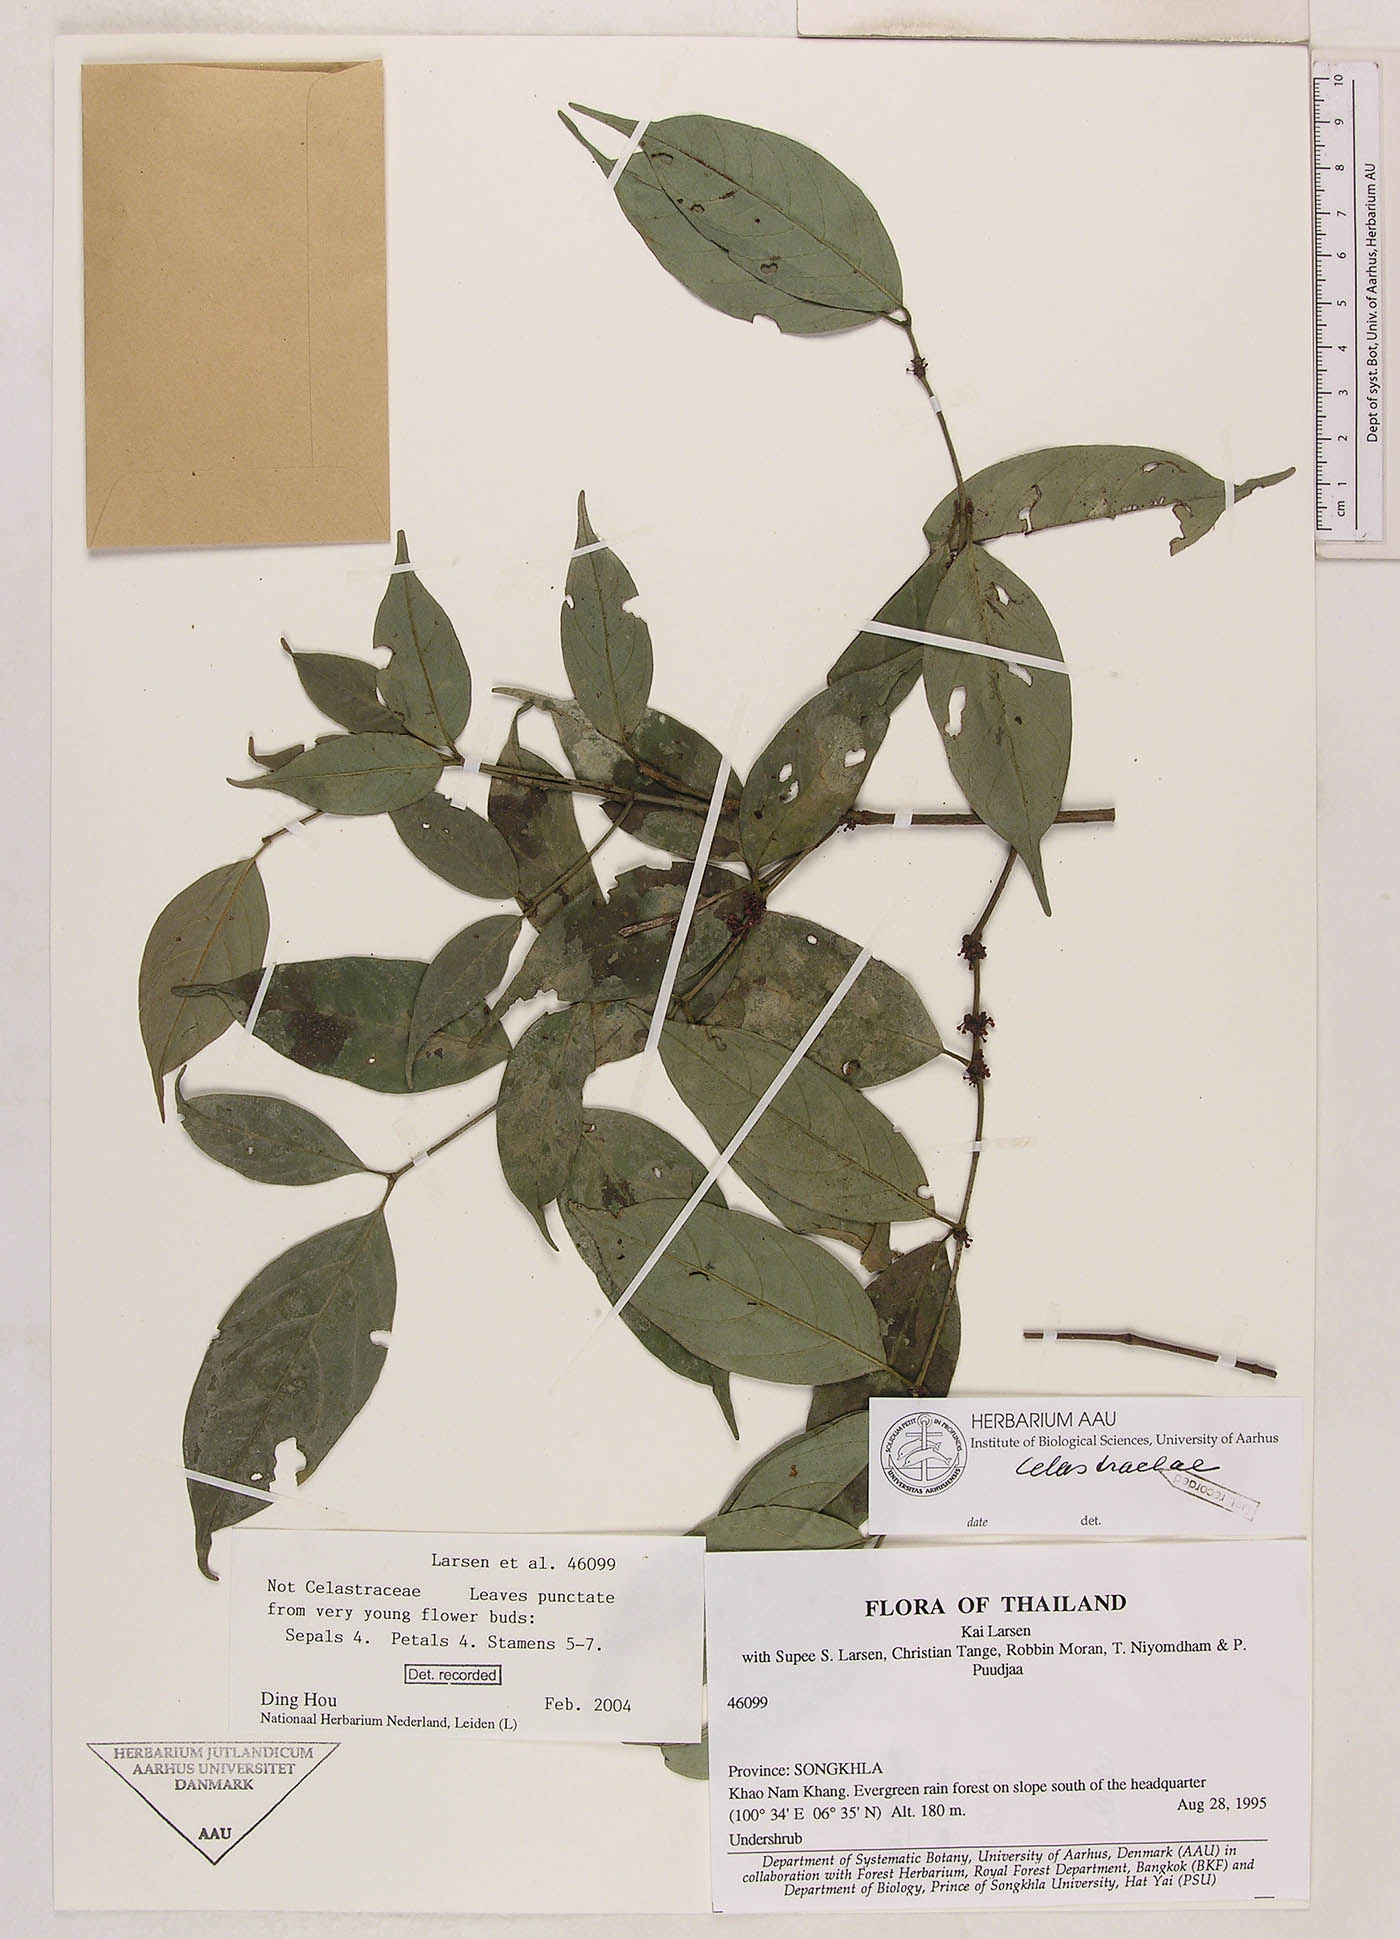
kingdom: Plantae
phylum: Tracheophyta
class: Magnoliopsida
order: Malpighiales
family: Clusiaceae
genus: Garcinia
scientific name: Garcinia
